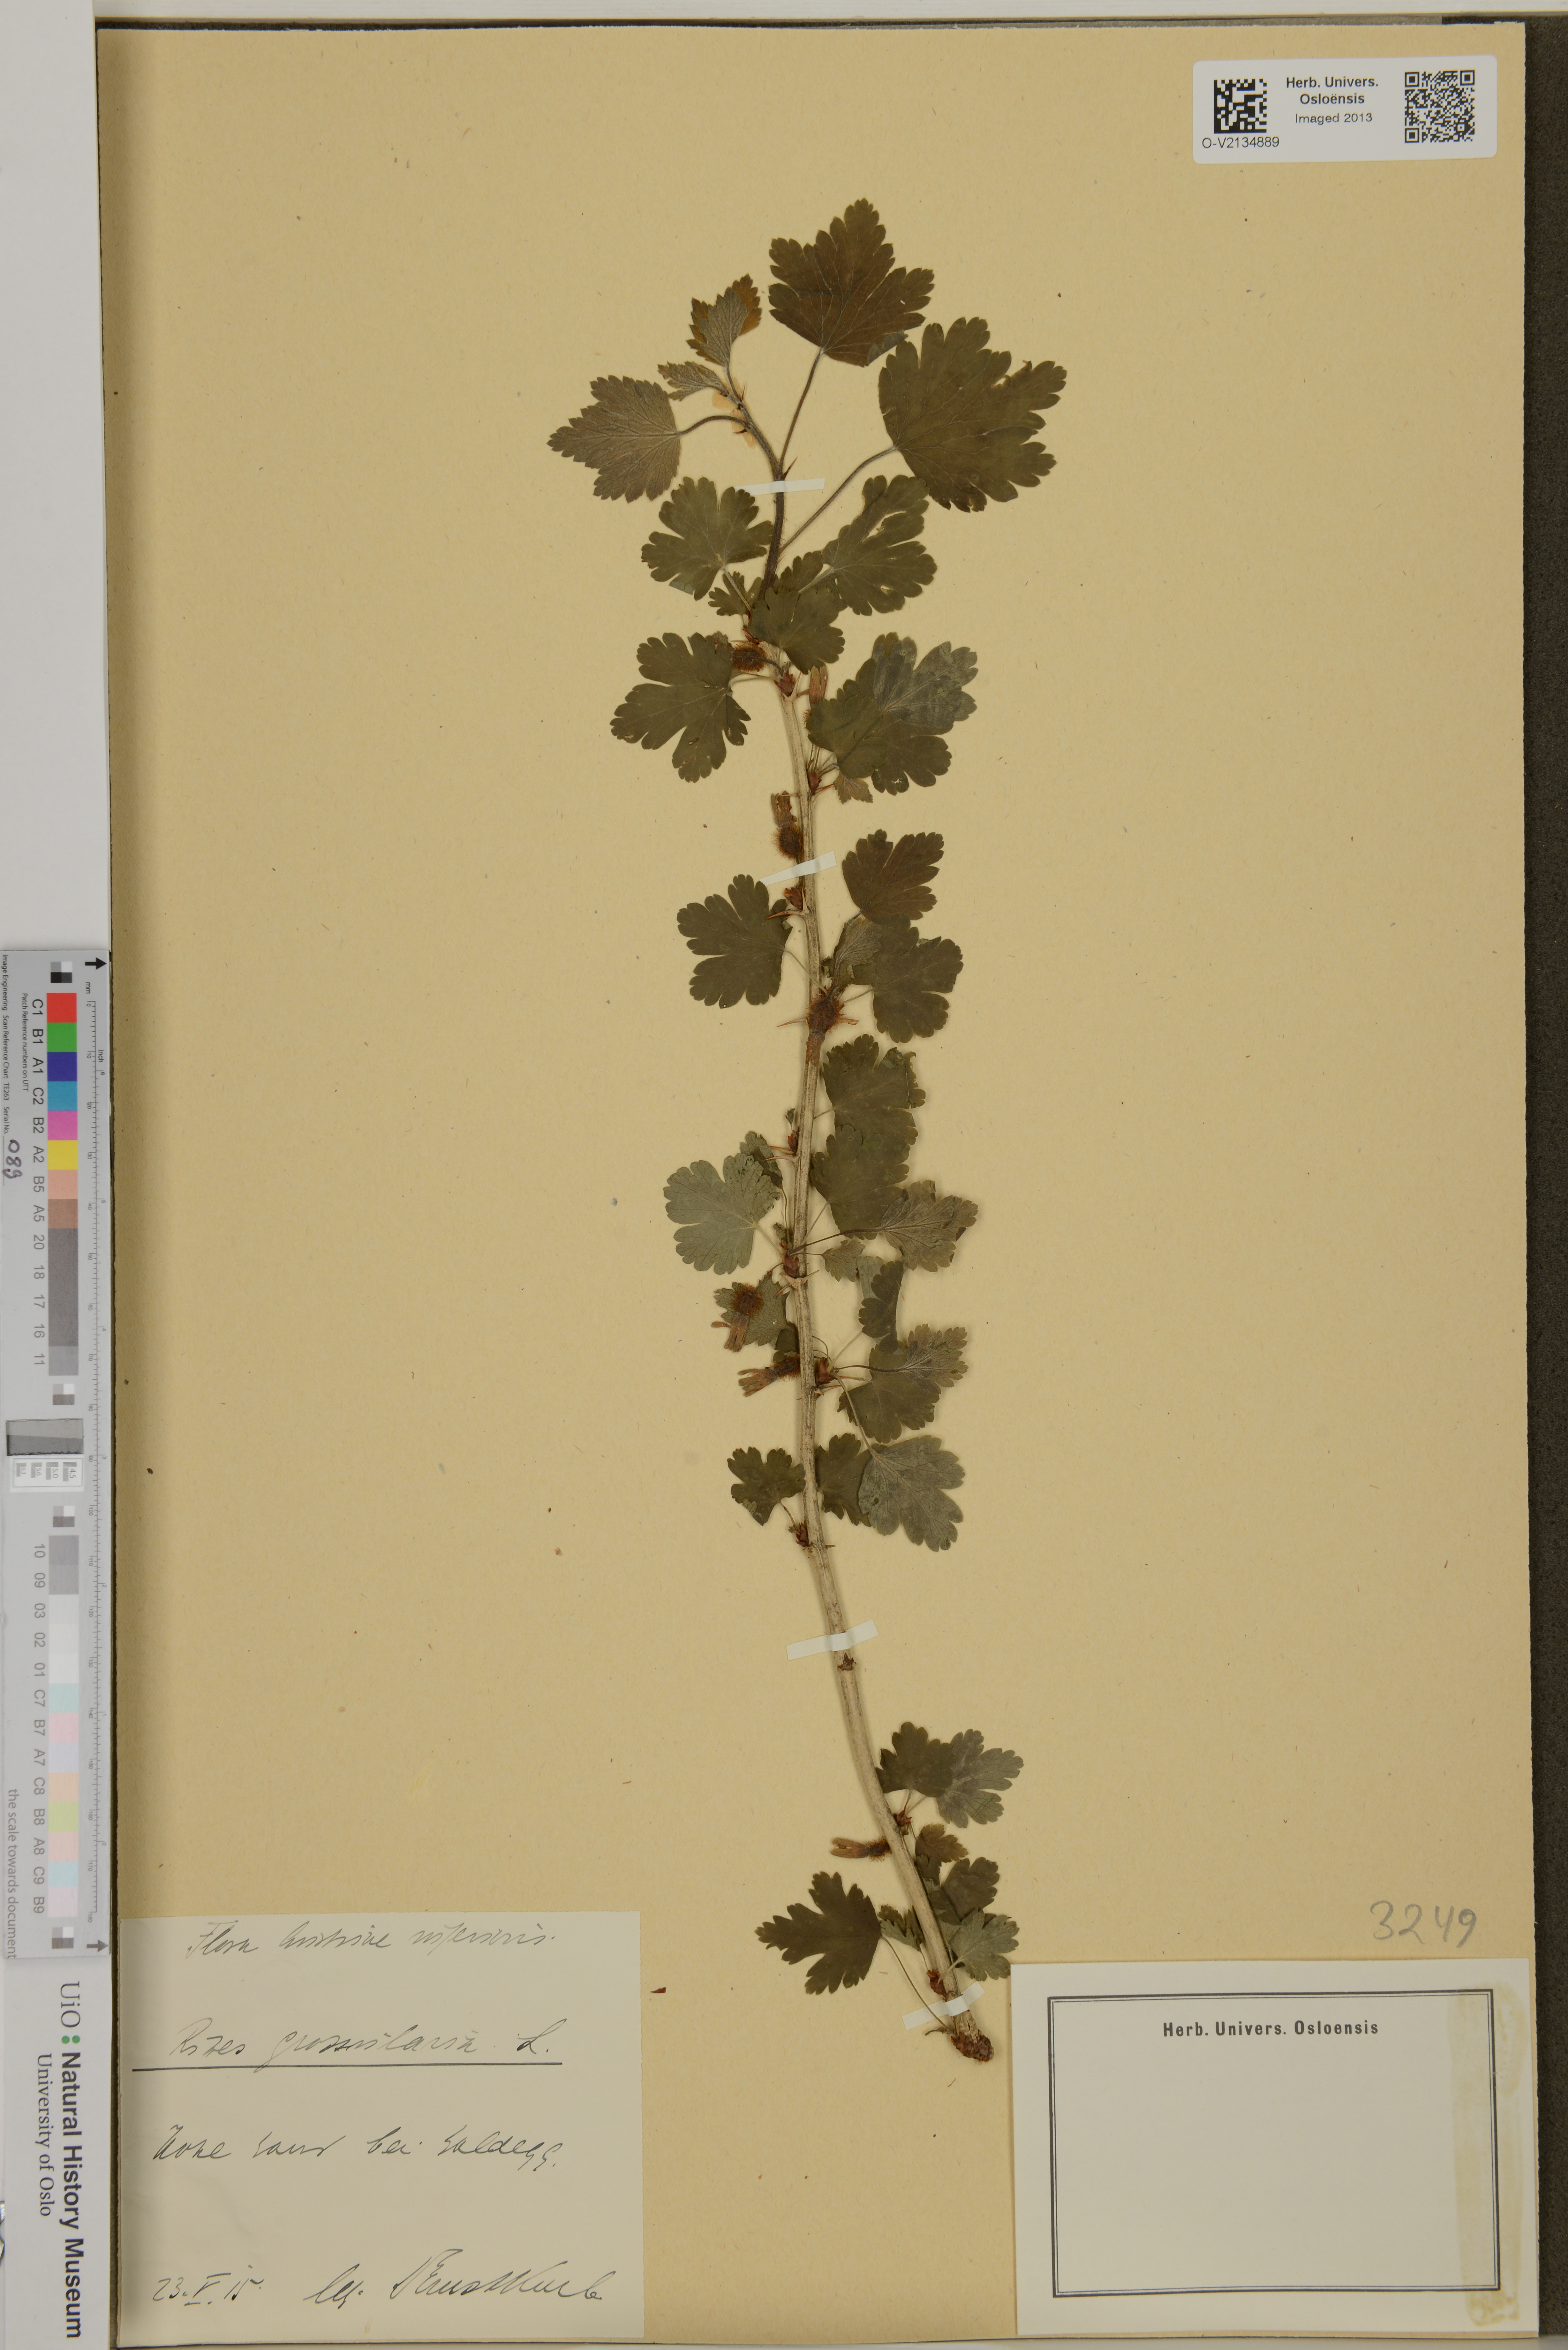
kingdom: Plantae
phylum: Tracheophyta
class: Magnoliopsida
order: Saxifragales
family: Grossulariaceae
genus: Ribes
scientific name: Ribes uva-crispa
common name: Gooseberry
